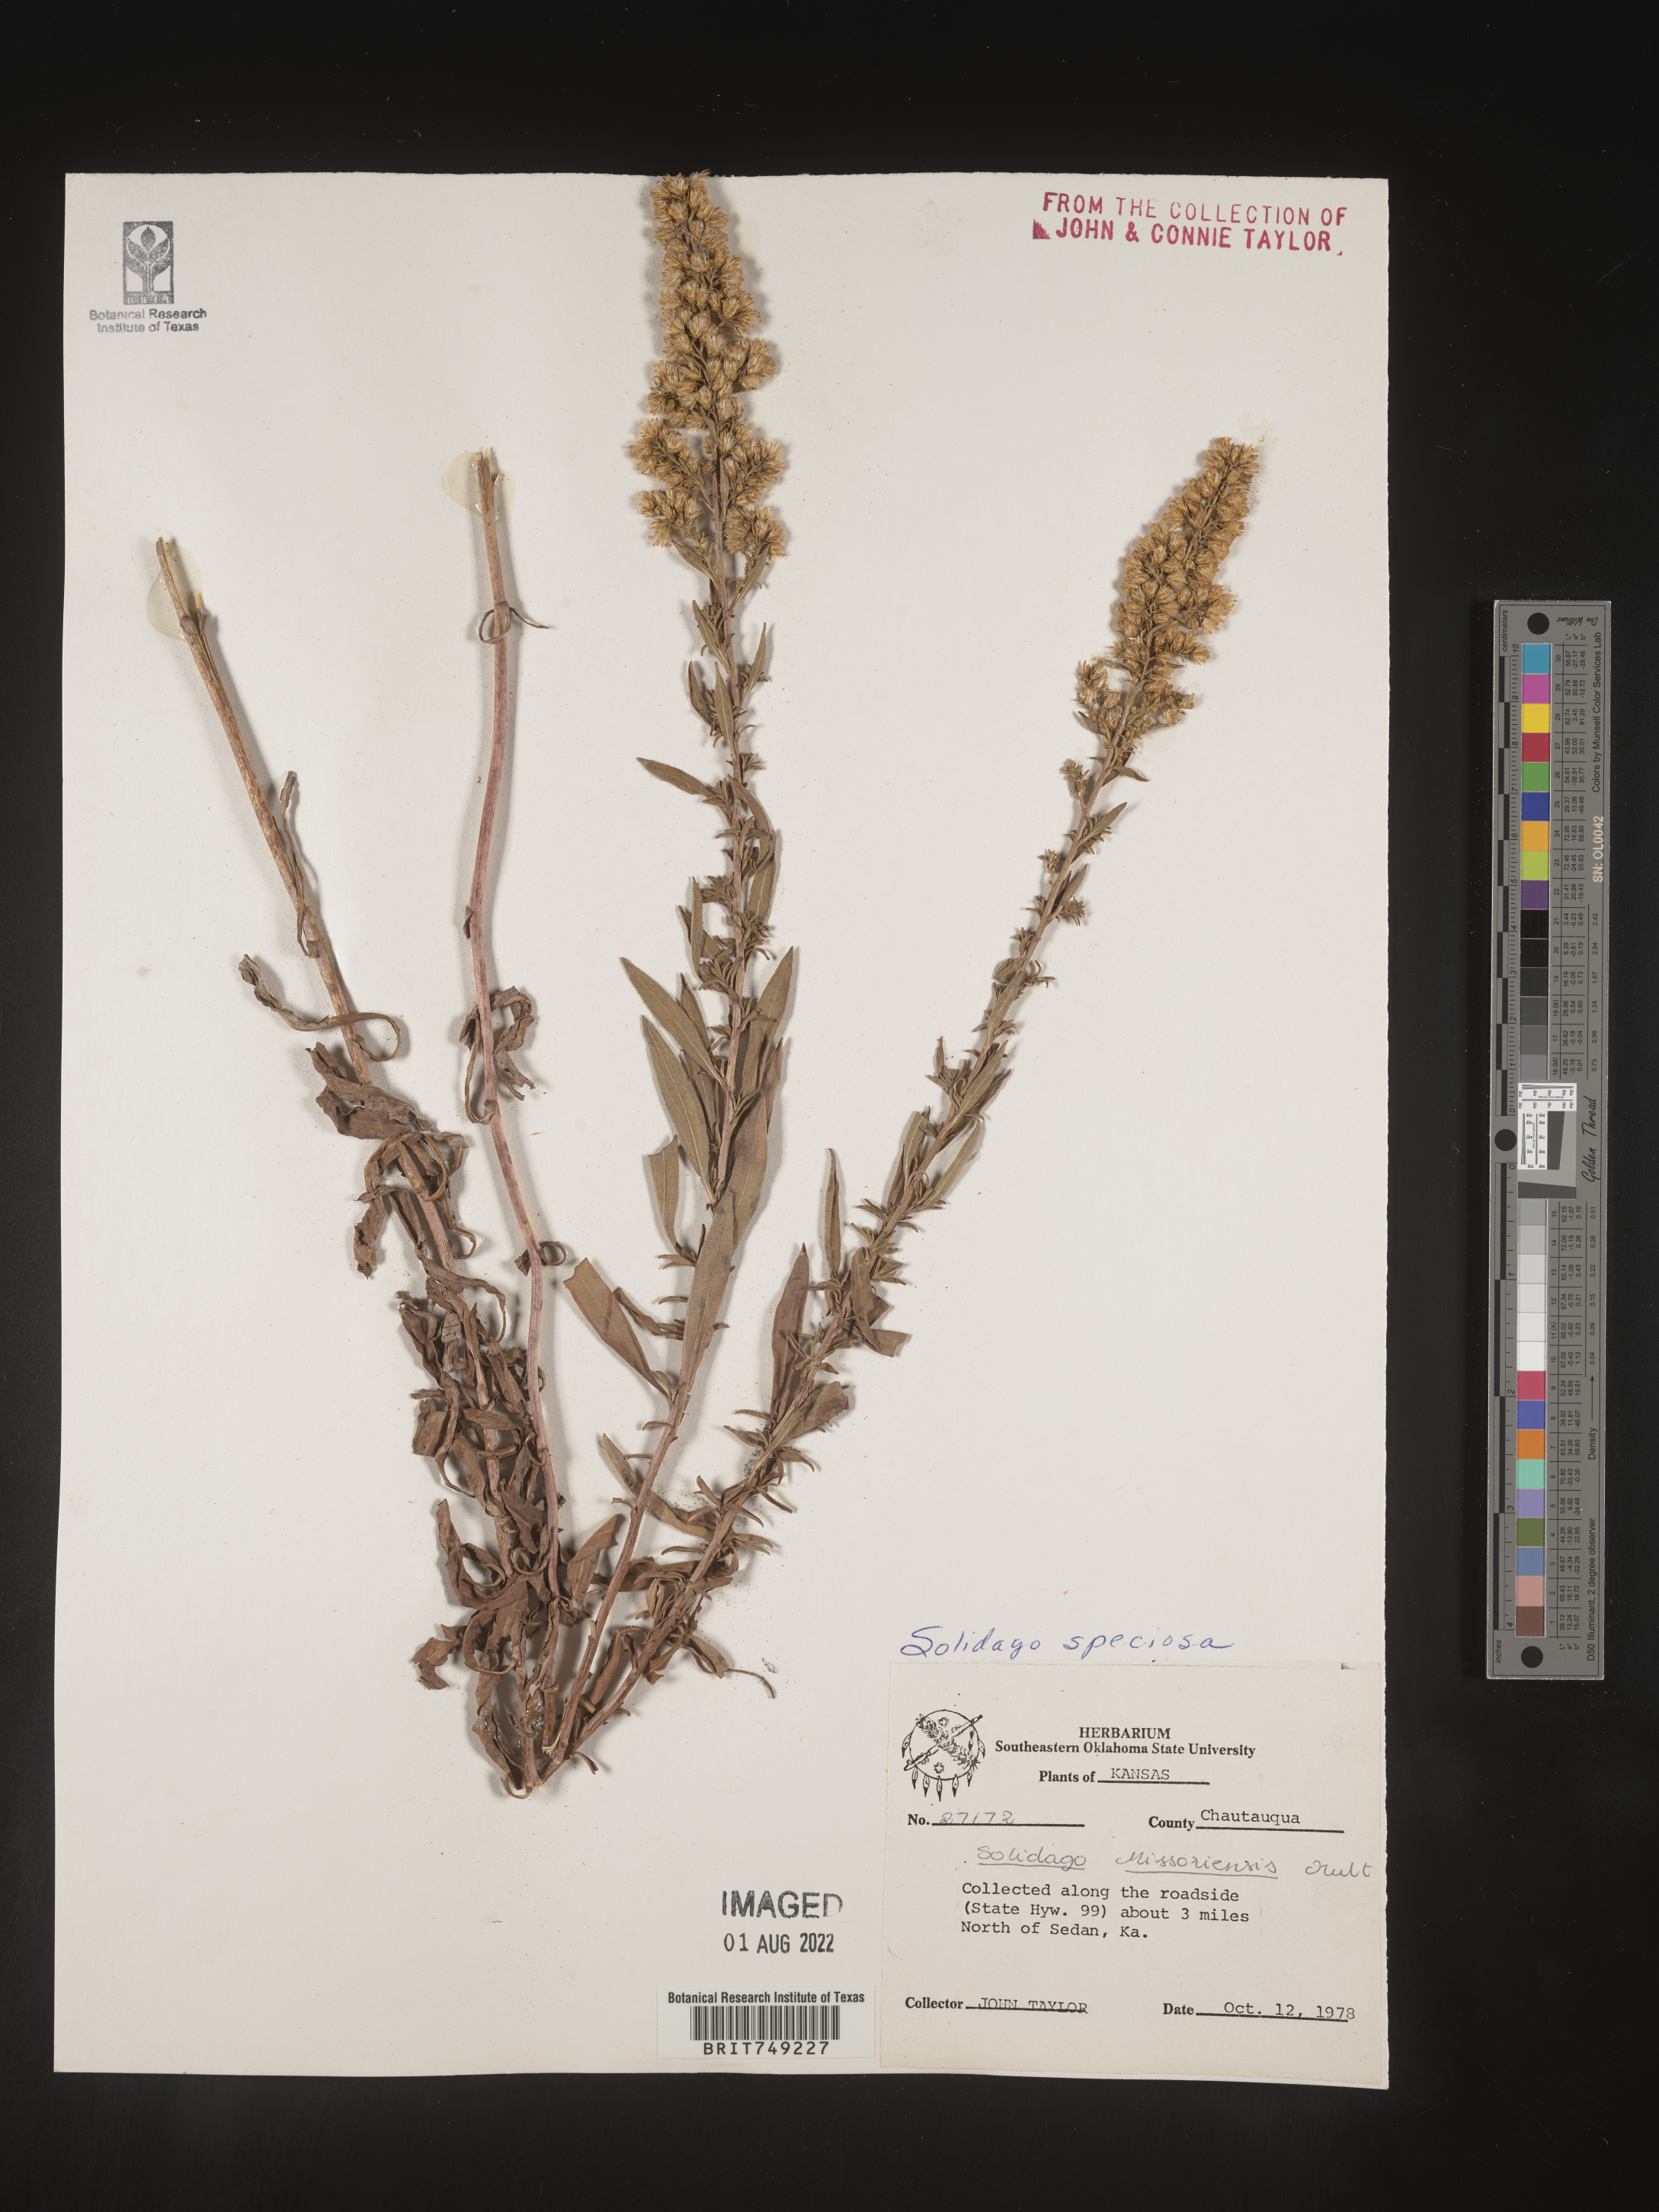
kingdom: Plantae
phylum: Tracheophyta
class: Magnoliopsida
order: Asterales
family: Asteraceae
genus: Solidago
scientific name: Solidago speciosa
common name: Showy goldenrod
